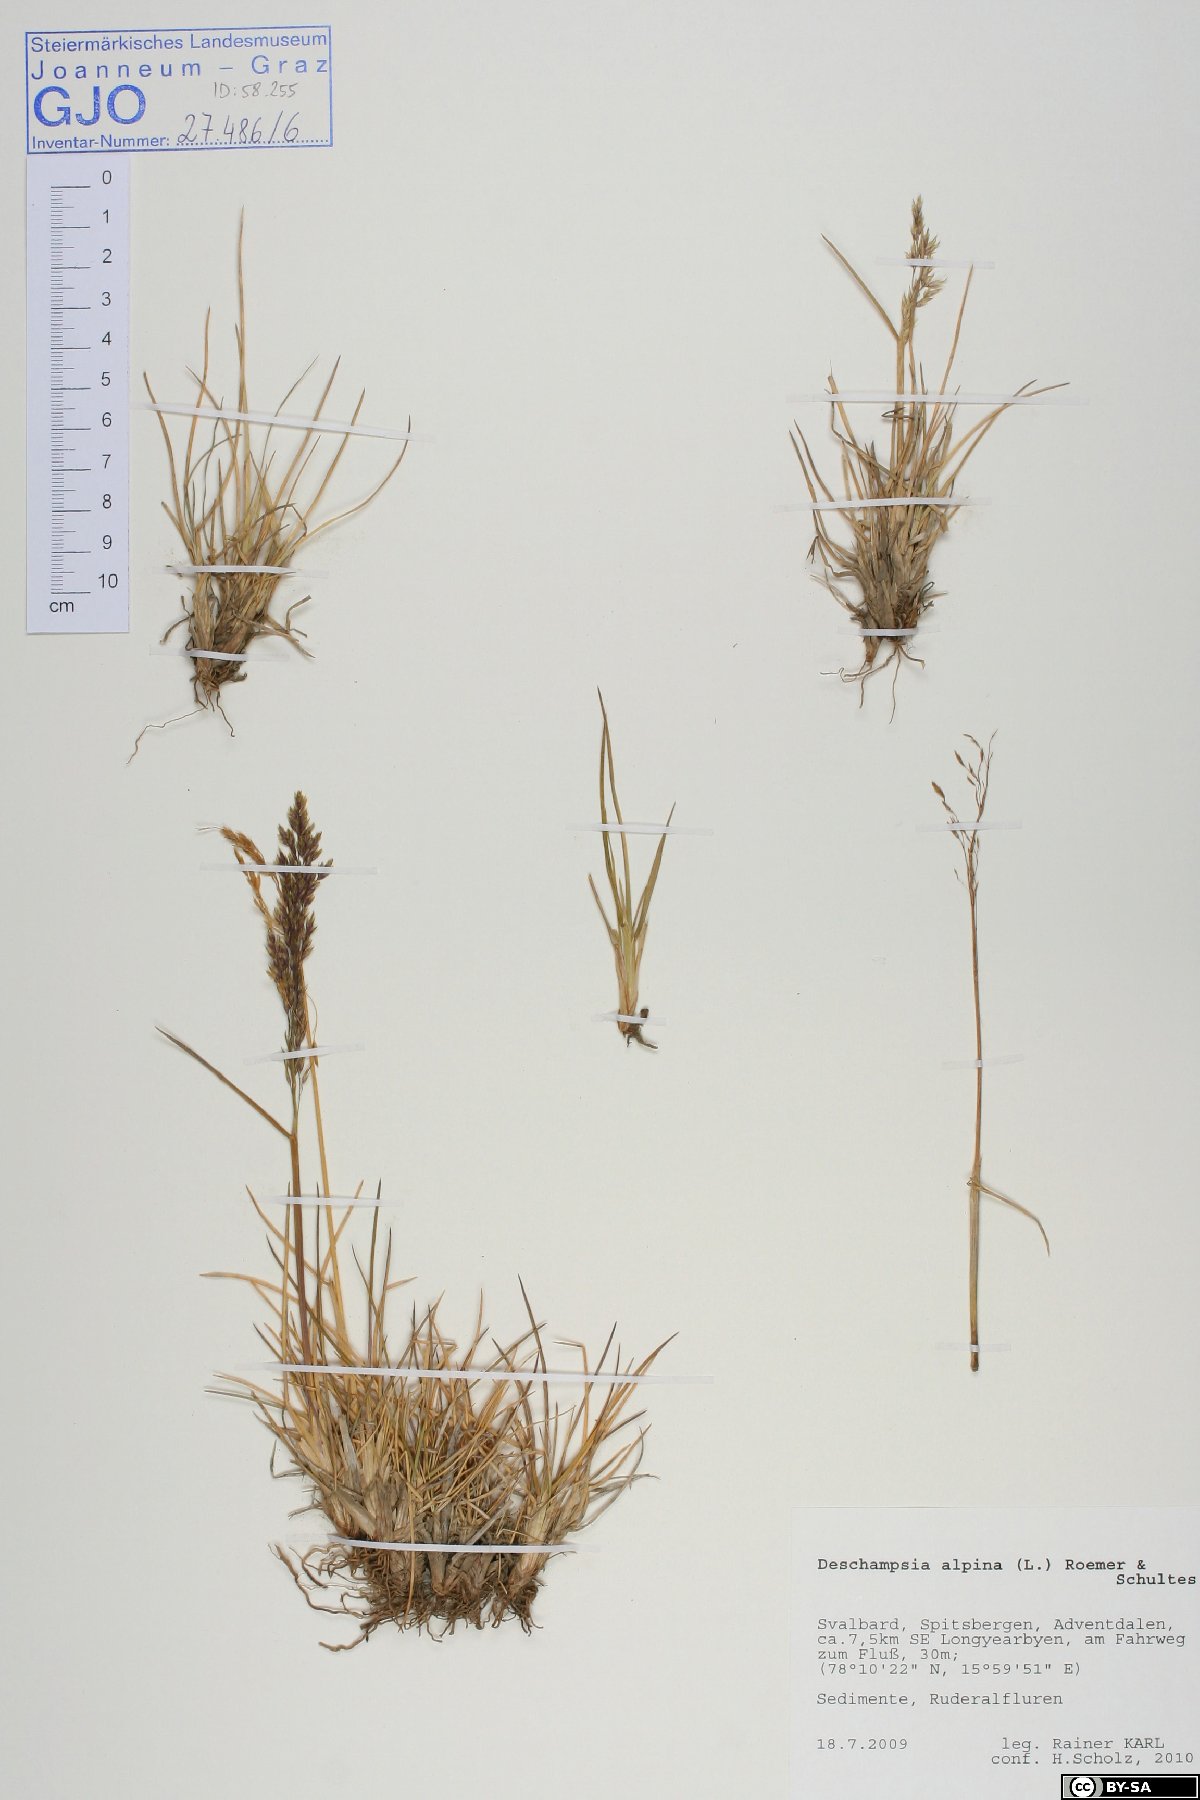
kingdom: Plantae
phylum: Tracheophyta
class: Liliopsida
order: Poales
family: Poaceae
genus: Deschampsia
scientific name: Deschampsia cespitosa
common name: Tufted hair-grass
